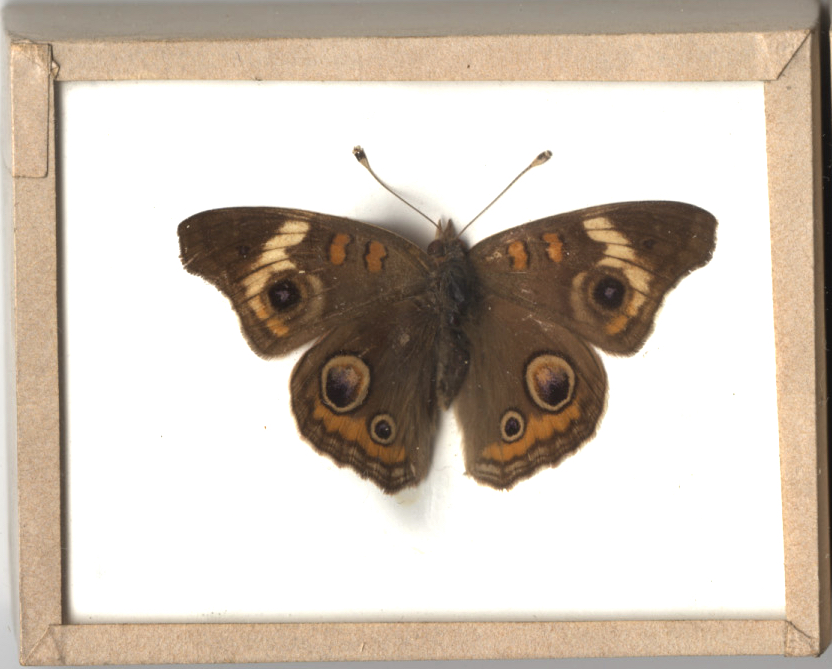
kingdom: Animalia
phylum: Arthropoda
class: Insecta
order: Lepidoptera
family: Nymphalidae
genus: Junonia
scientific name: Junonia coenia
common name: Common Buckeye
